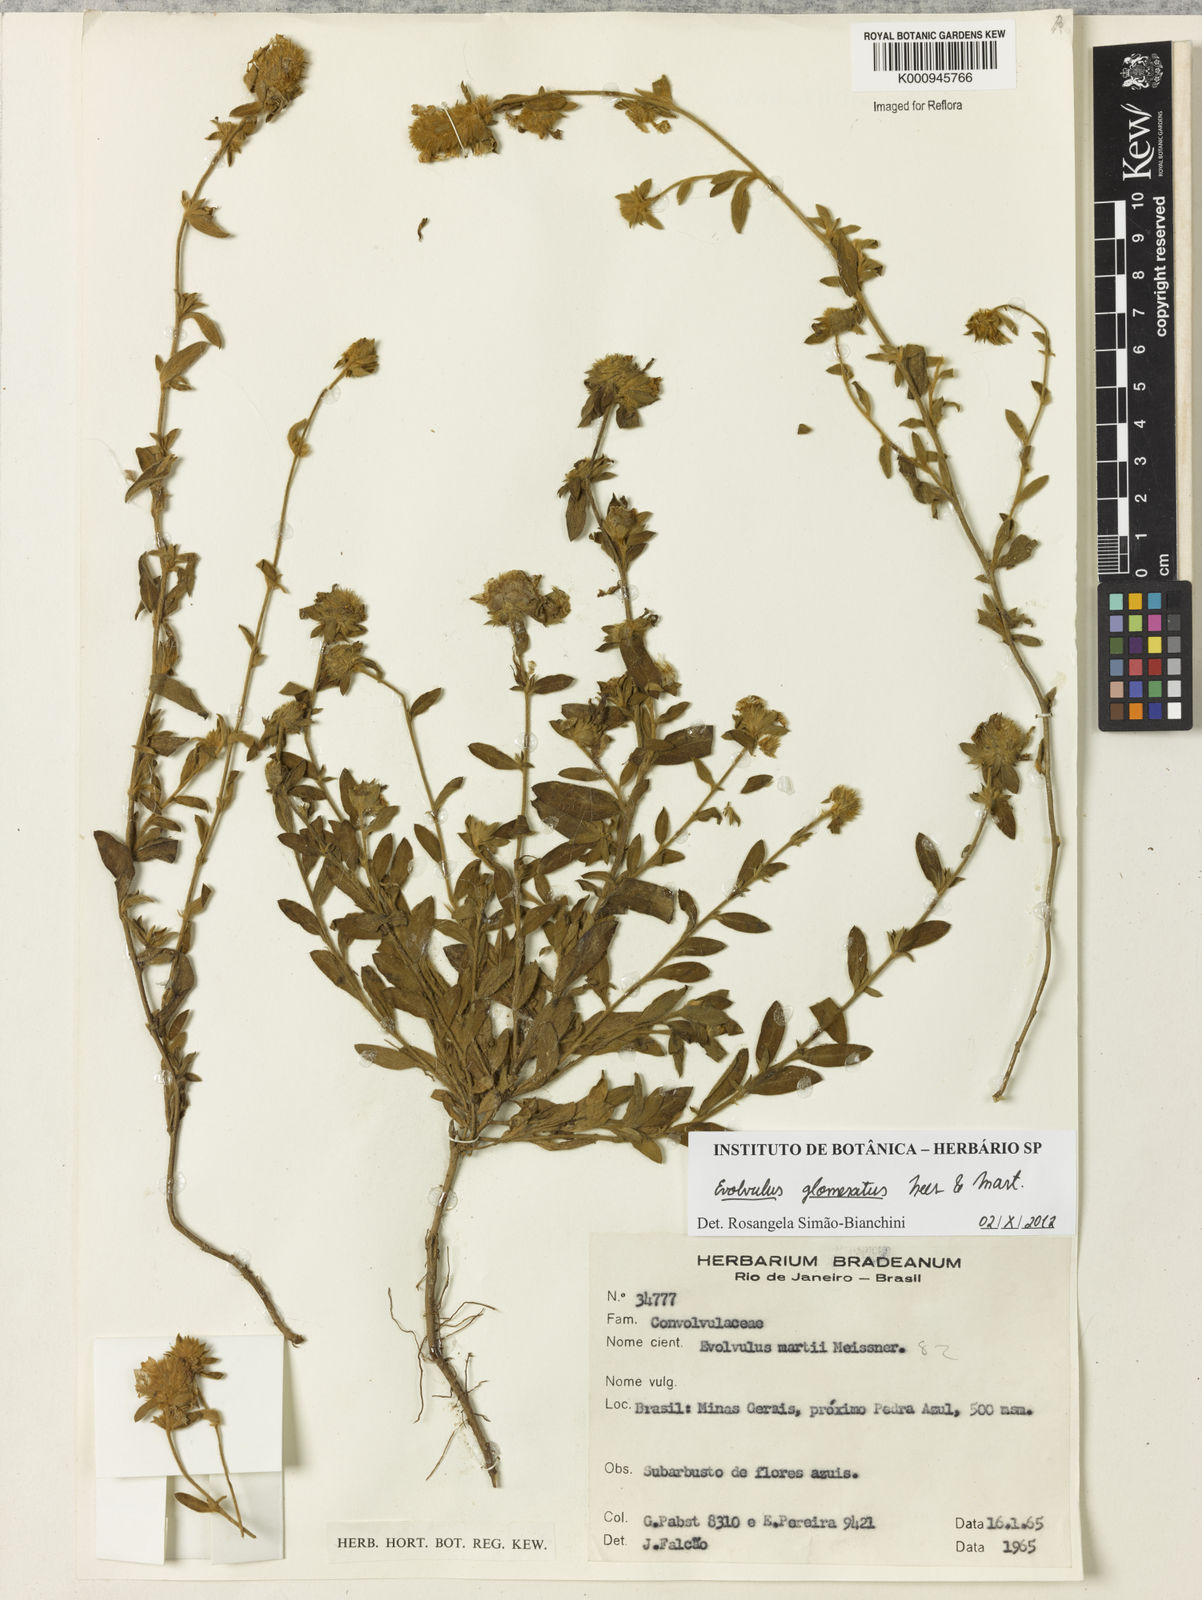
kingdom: Plantae
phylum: Tracheophyta
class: Magnoliopsida
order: Solanales
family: Convolvulaceae
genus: Evolvulus
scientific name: Evolvulus glomeratus
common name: Brazilian dwarf morning-glory
